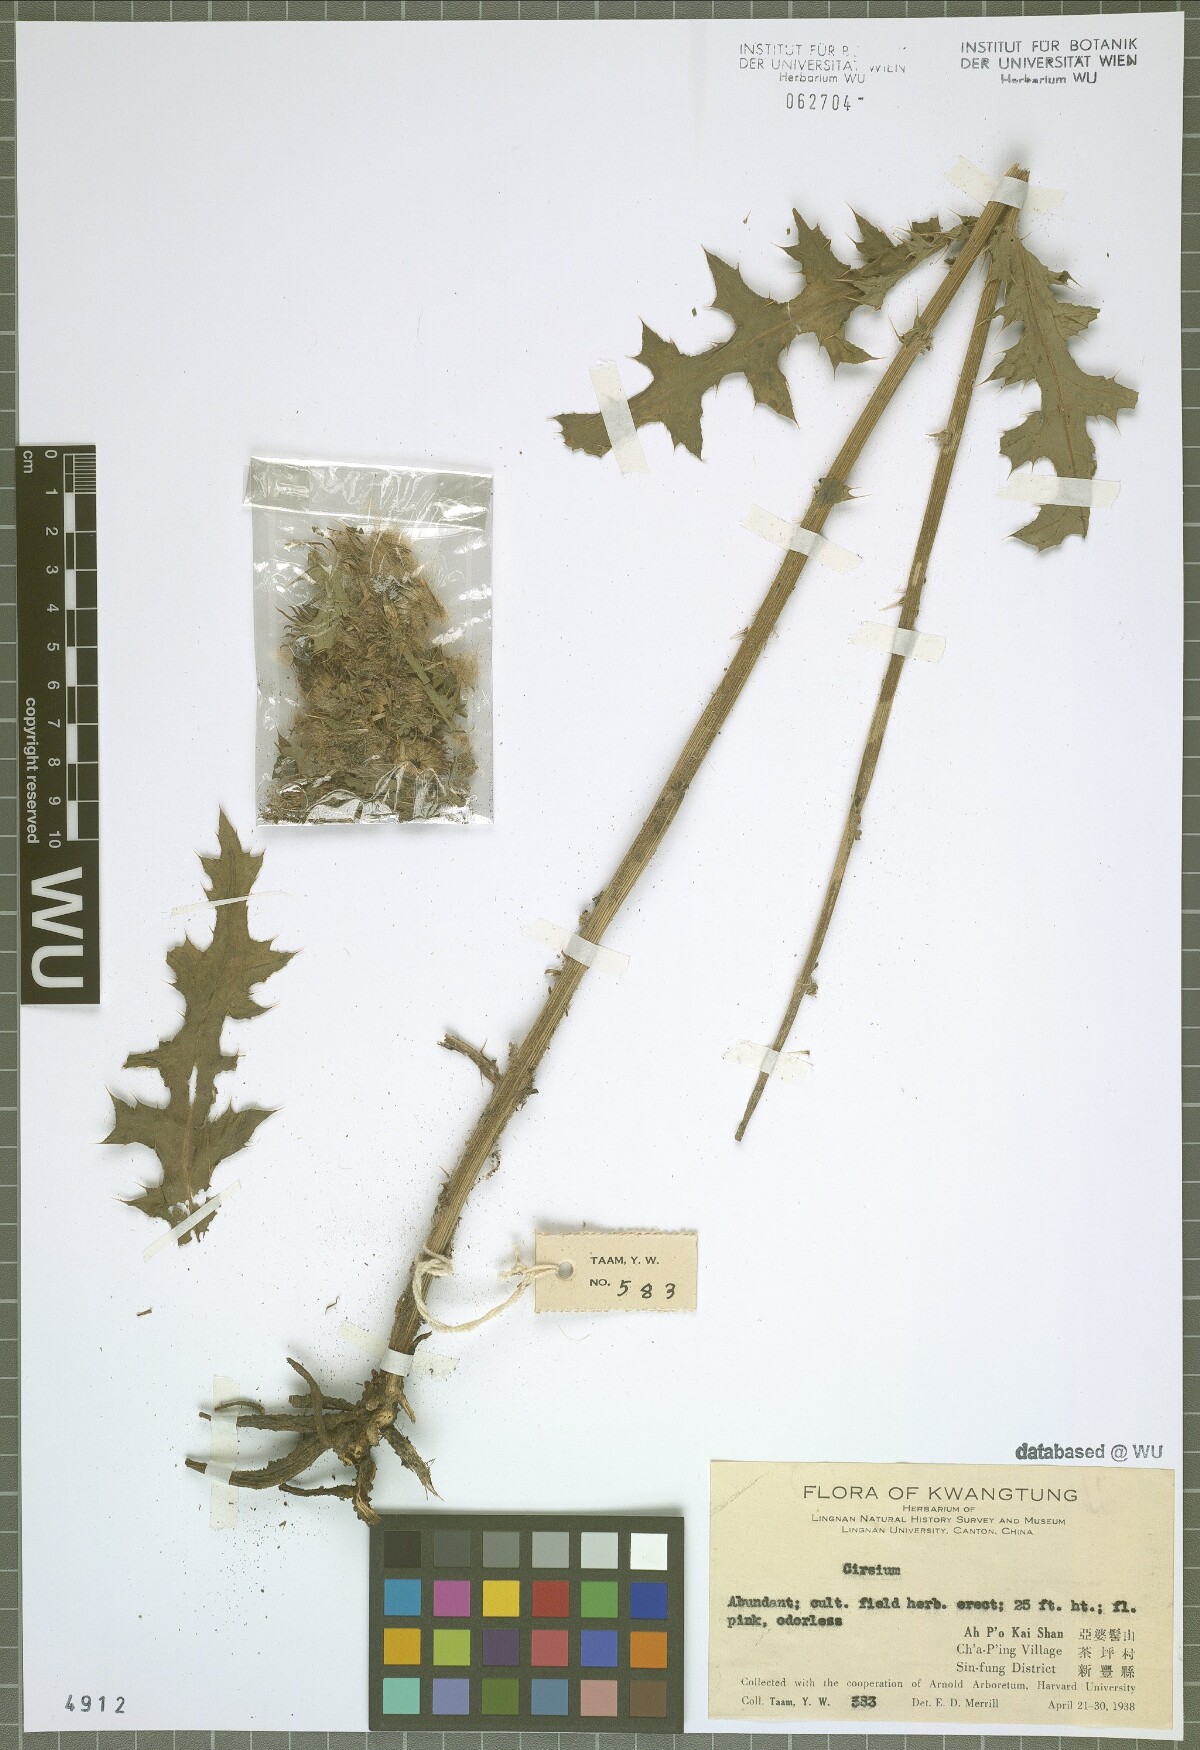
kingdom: Plantae
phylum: Tracheophyta
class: Magnoliopsida
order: Asterales
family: Asteraceae
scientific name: Asteraceae
